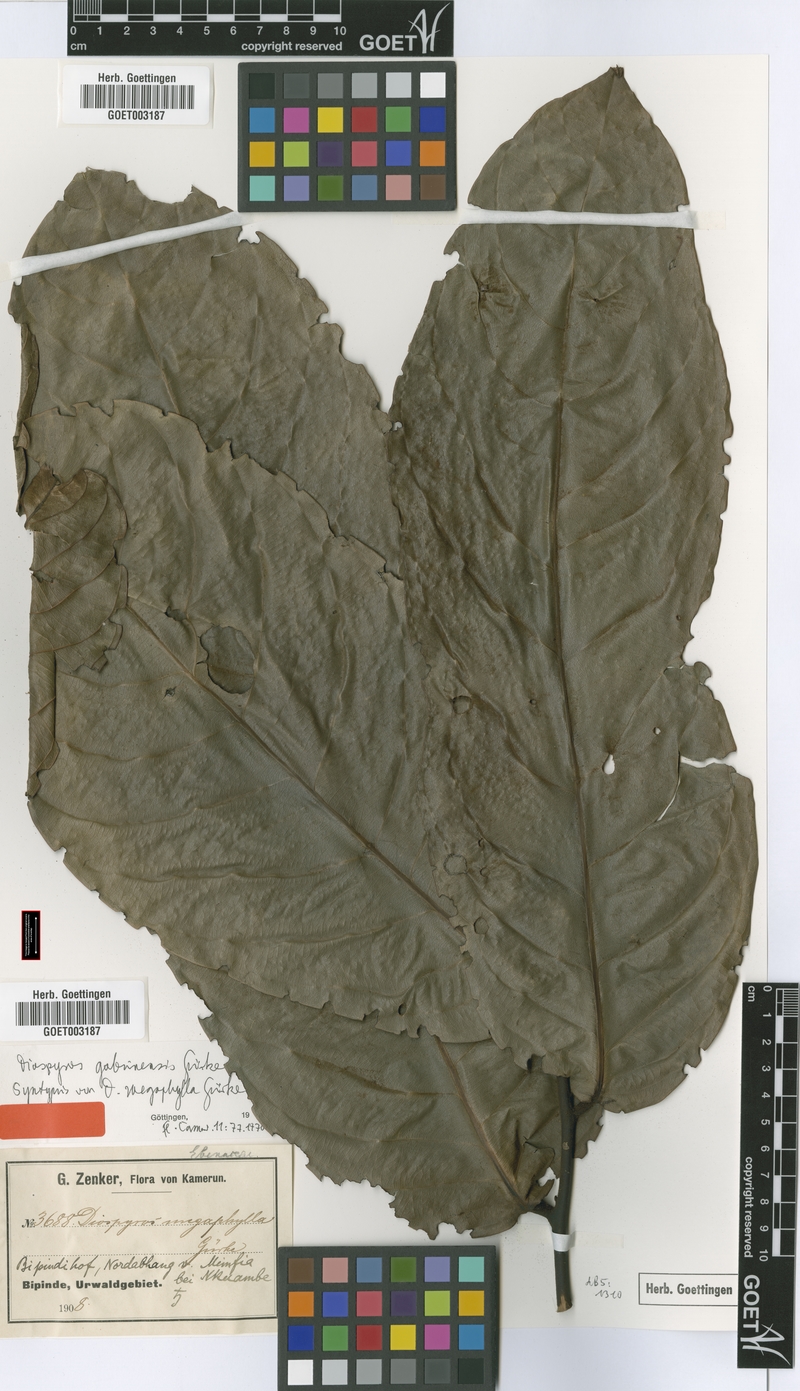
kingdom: Plantae
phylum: Tracheophyta
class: Magnoliopsida
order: Ericales
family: Ebenaceae
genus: Diospyros
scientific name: Diospyros gabunensis
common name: Flint bark tree
